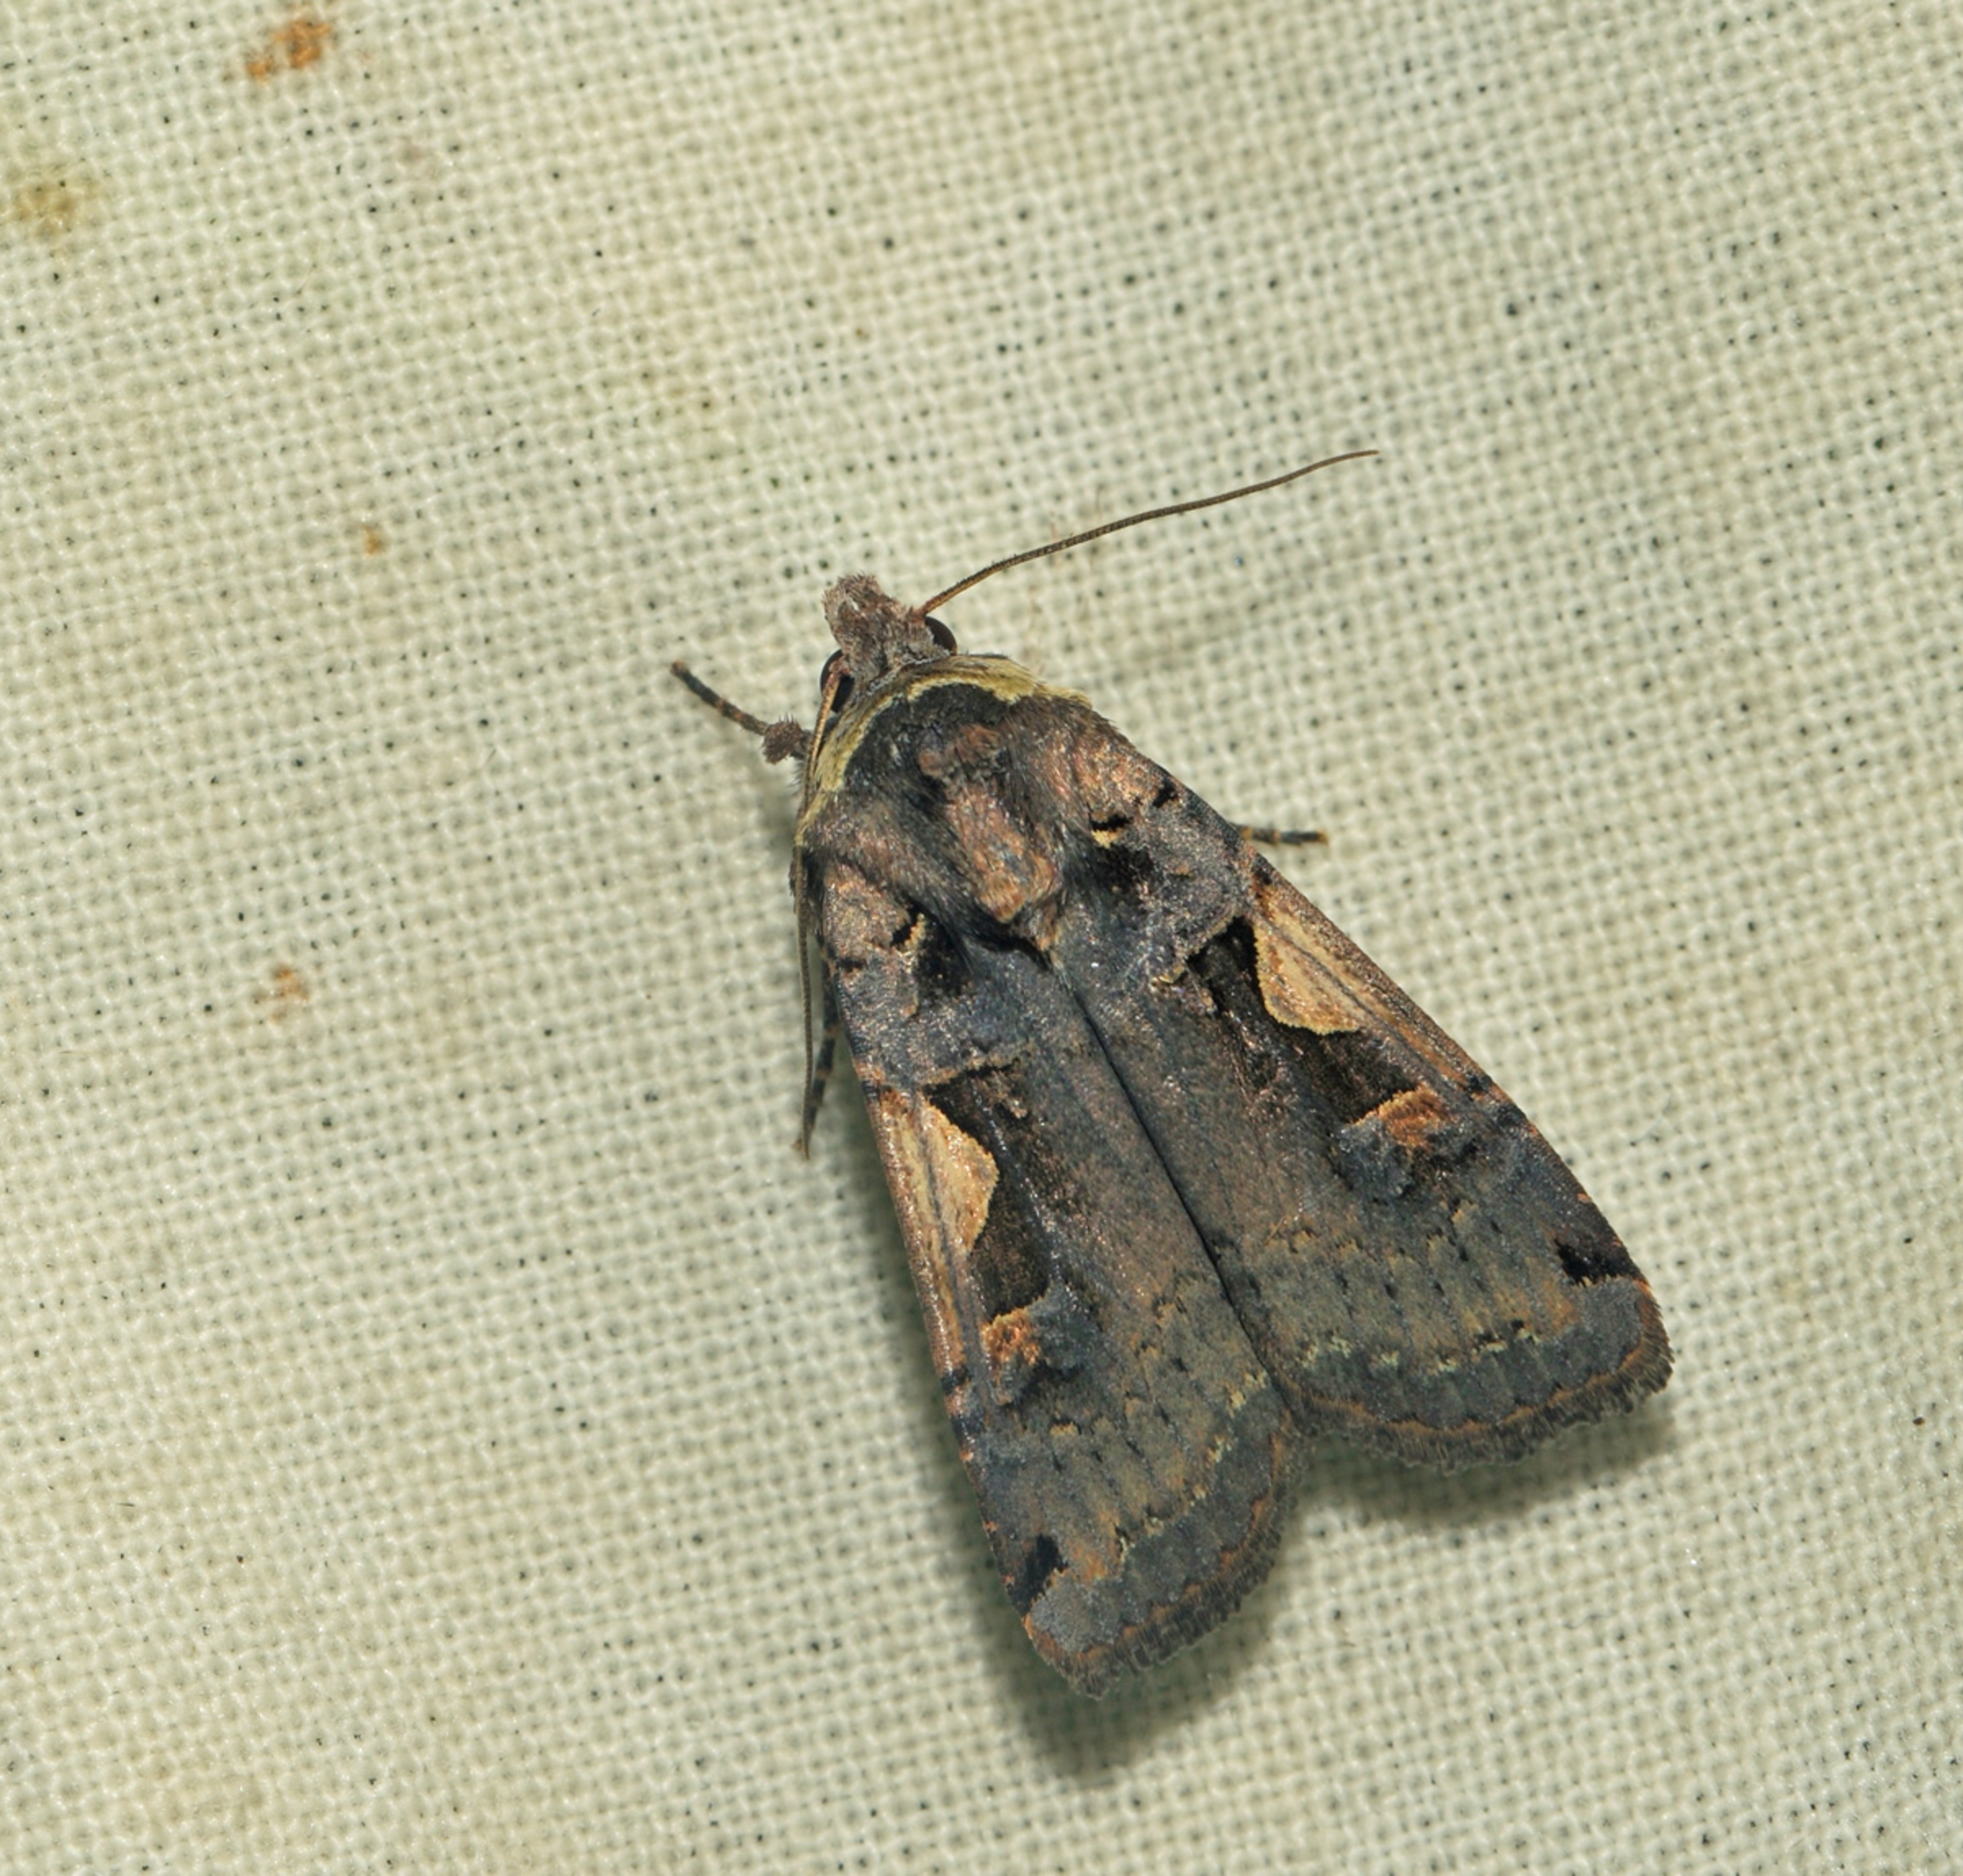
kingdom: Animalia
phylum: Arthropoda
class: Insecta
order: Lepidoptera
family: Noctuidae
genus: Xestia
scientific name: Xestia c-nigrum
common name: Det sorte c
